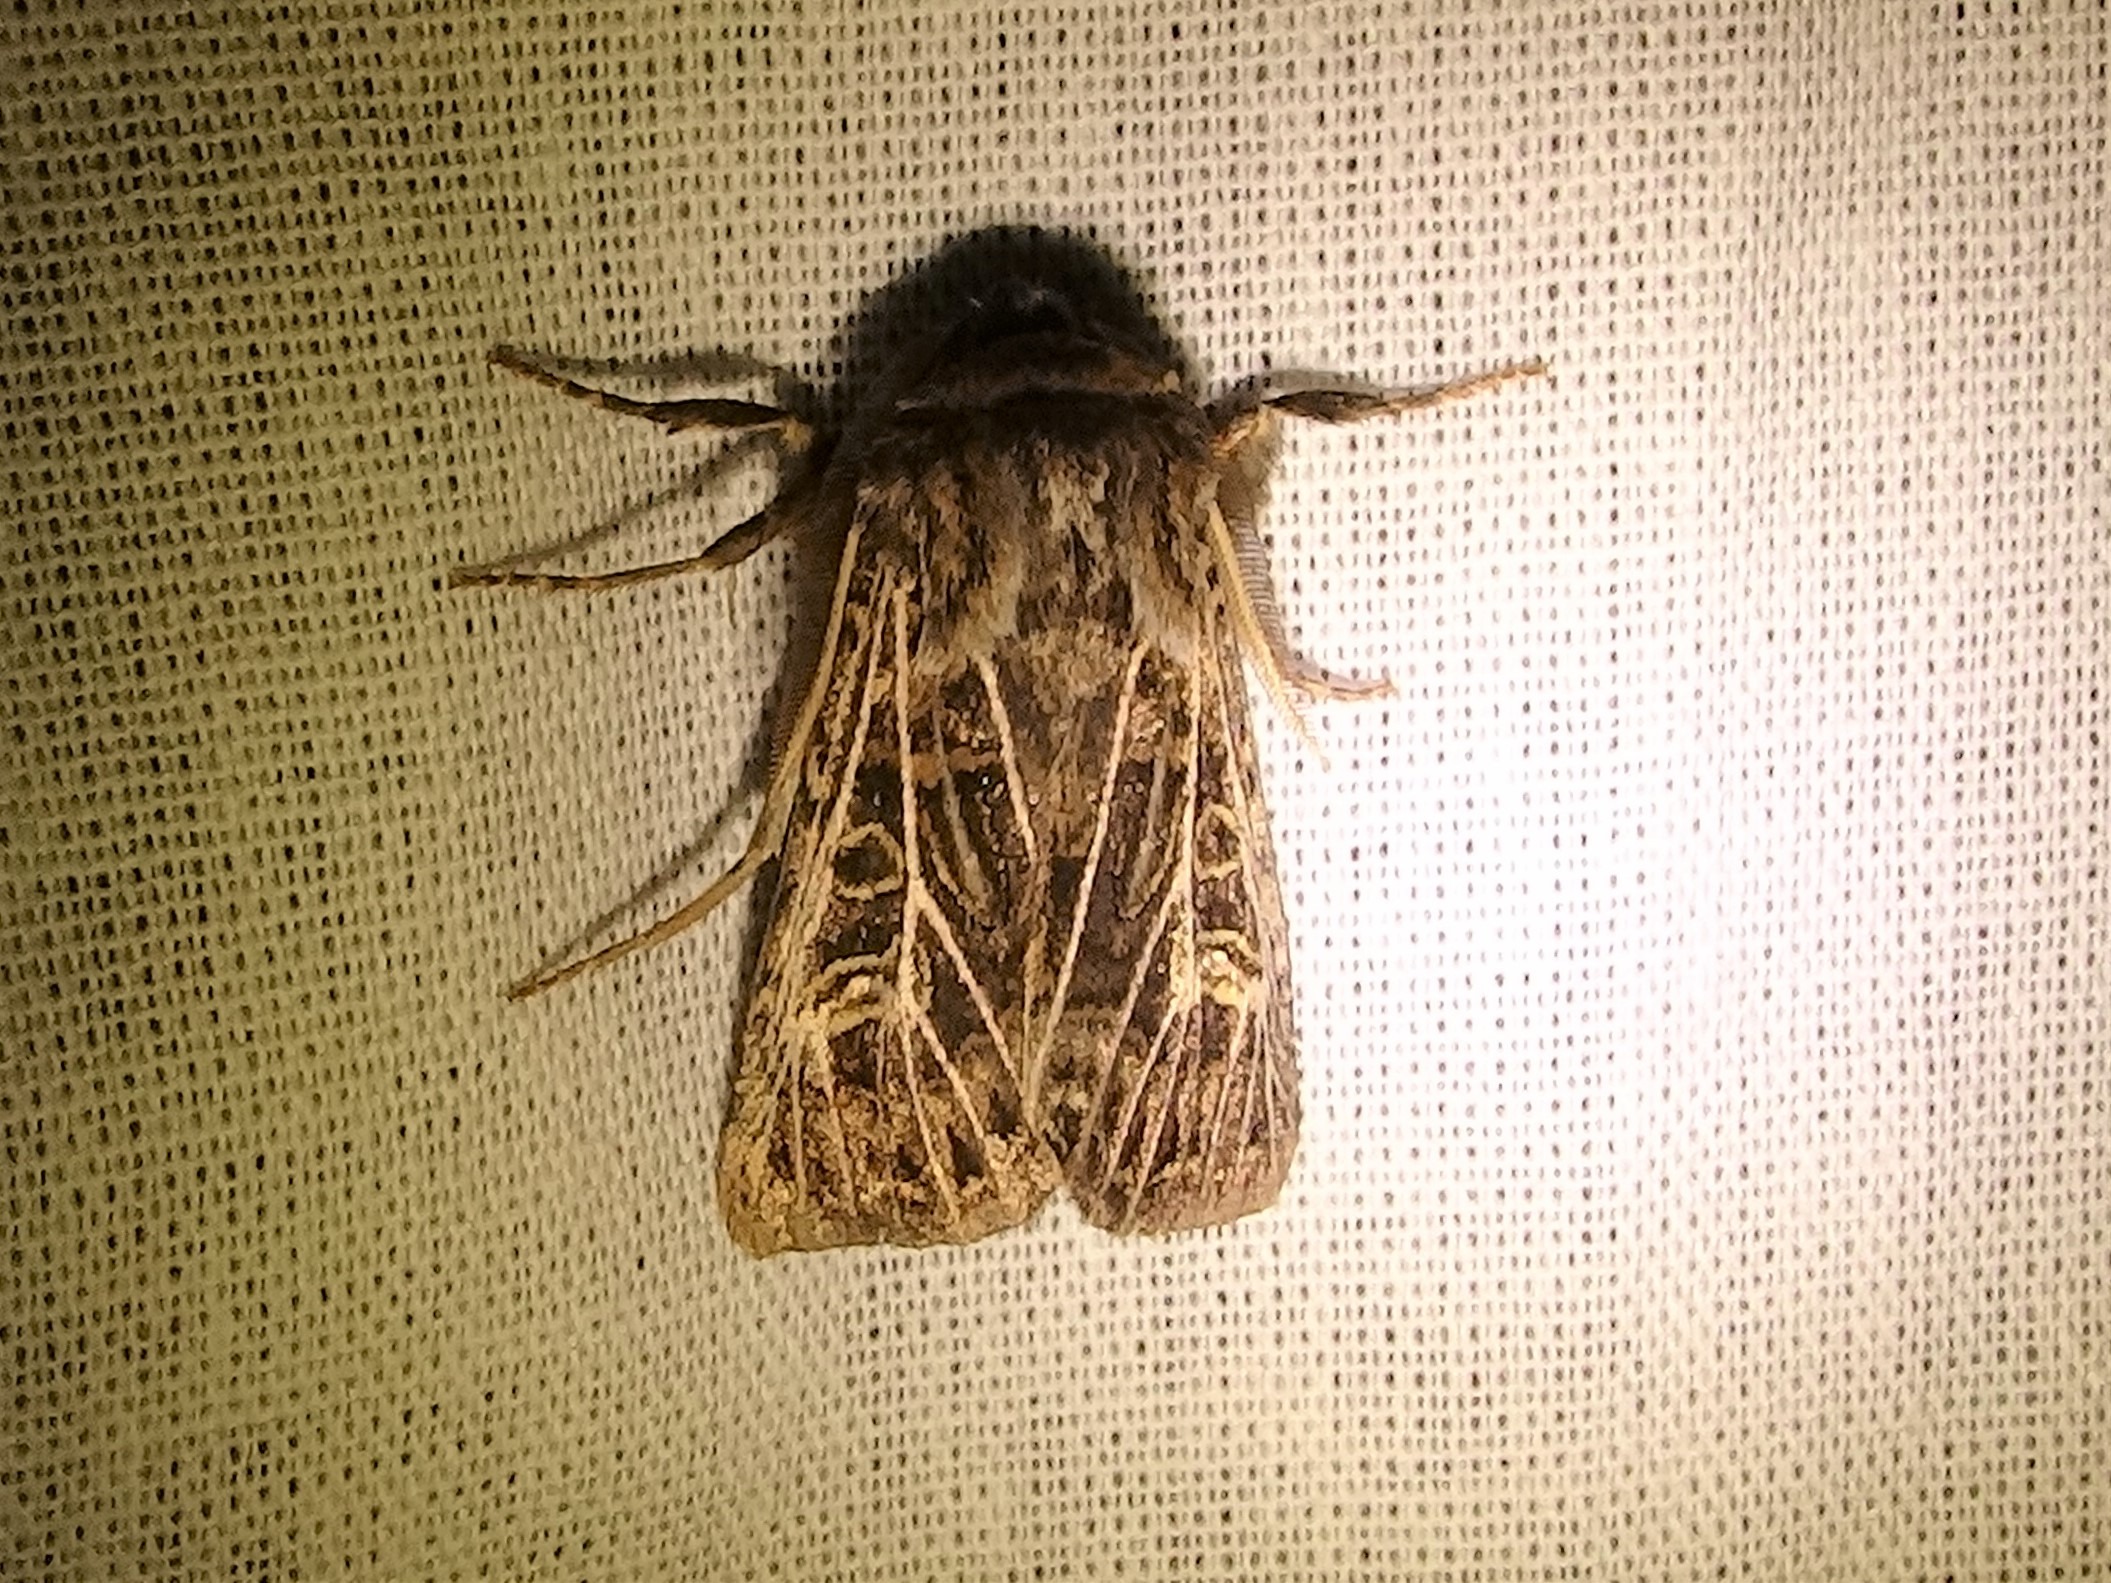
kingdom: Animalia
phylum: Arthropoda
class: Insecta
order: Lepidoptera
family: Noctuidae
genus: Tholera
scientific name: Tholera decimalis
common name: Hvidåret græsugle
